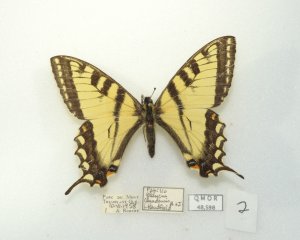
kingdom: Animalia
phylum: Arthropoda
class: Insecta
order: Lepidoptera
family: Papilionidae
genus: Pterourus
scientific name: Pterourus canadensis
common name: Canadian Tiger Swallowtail
